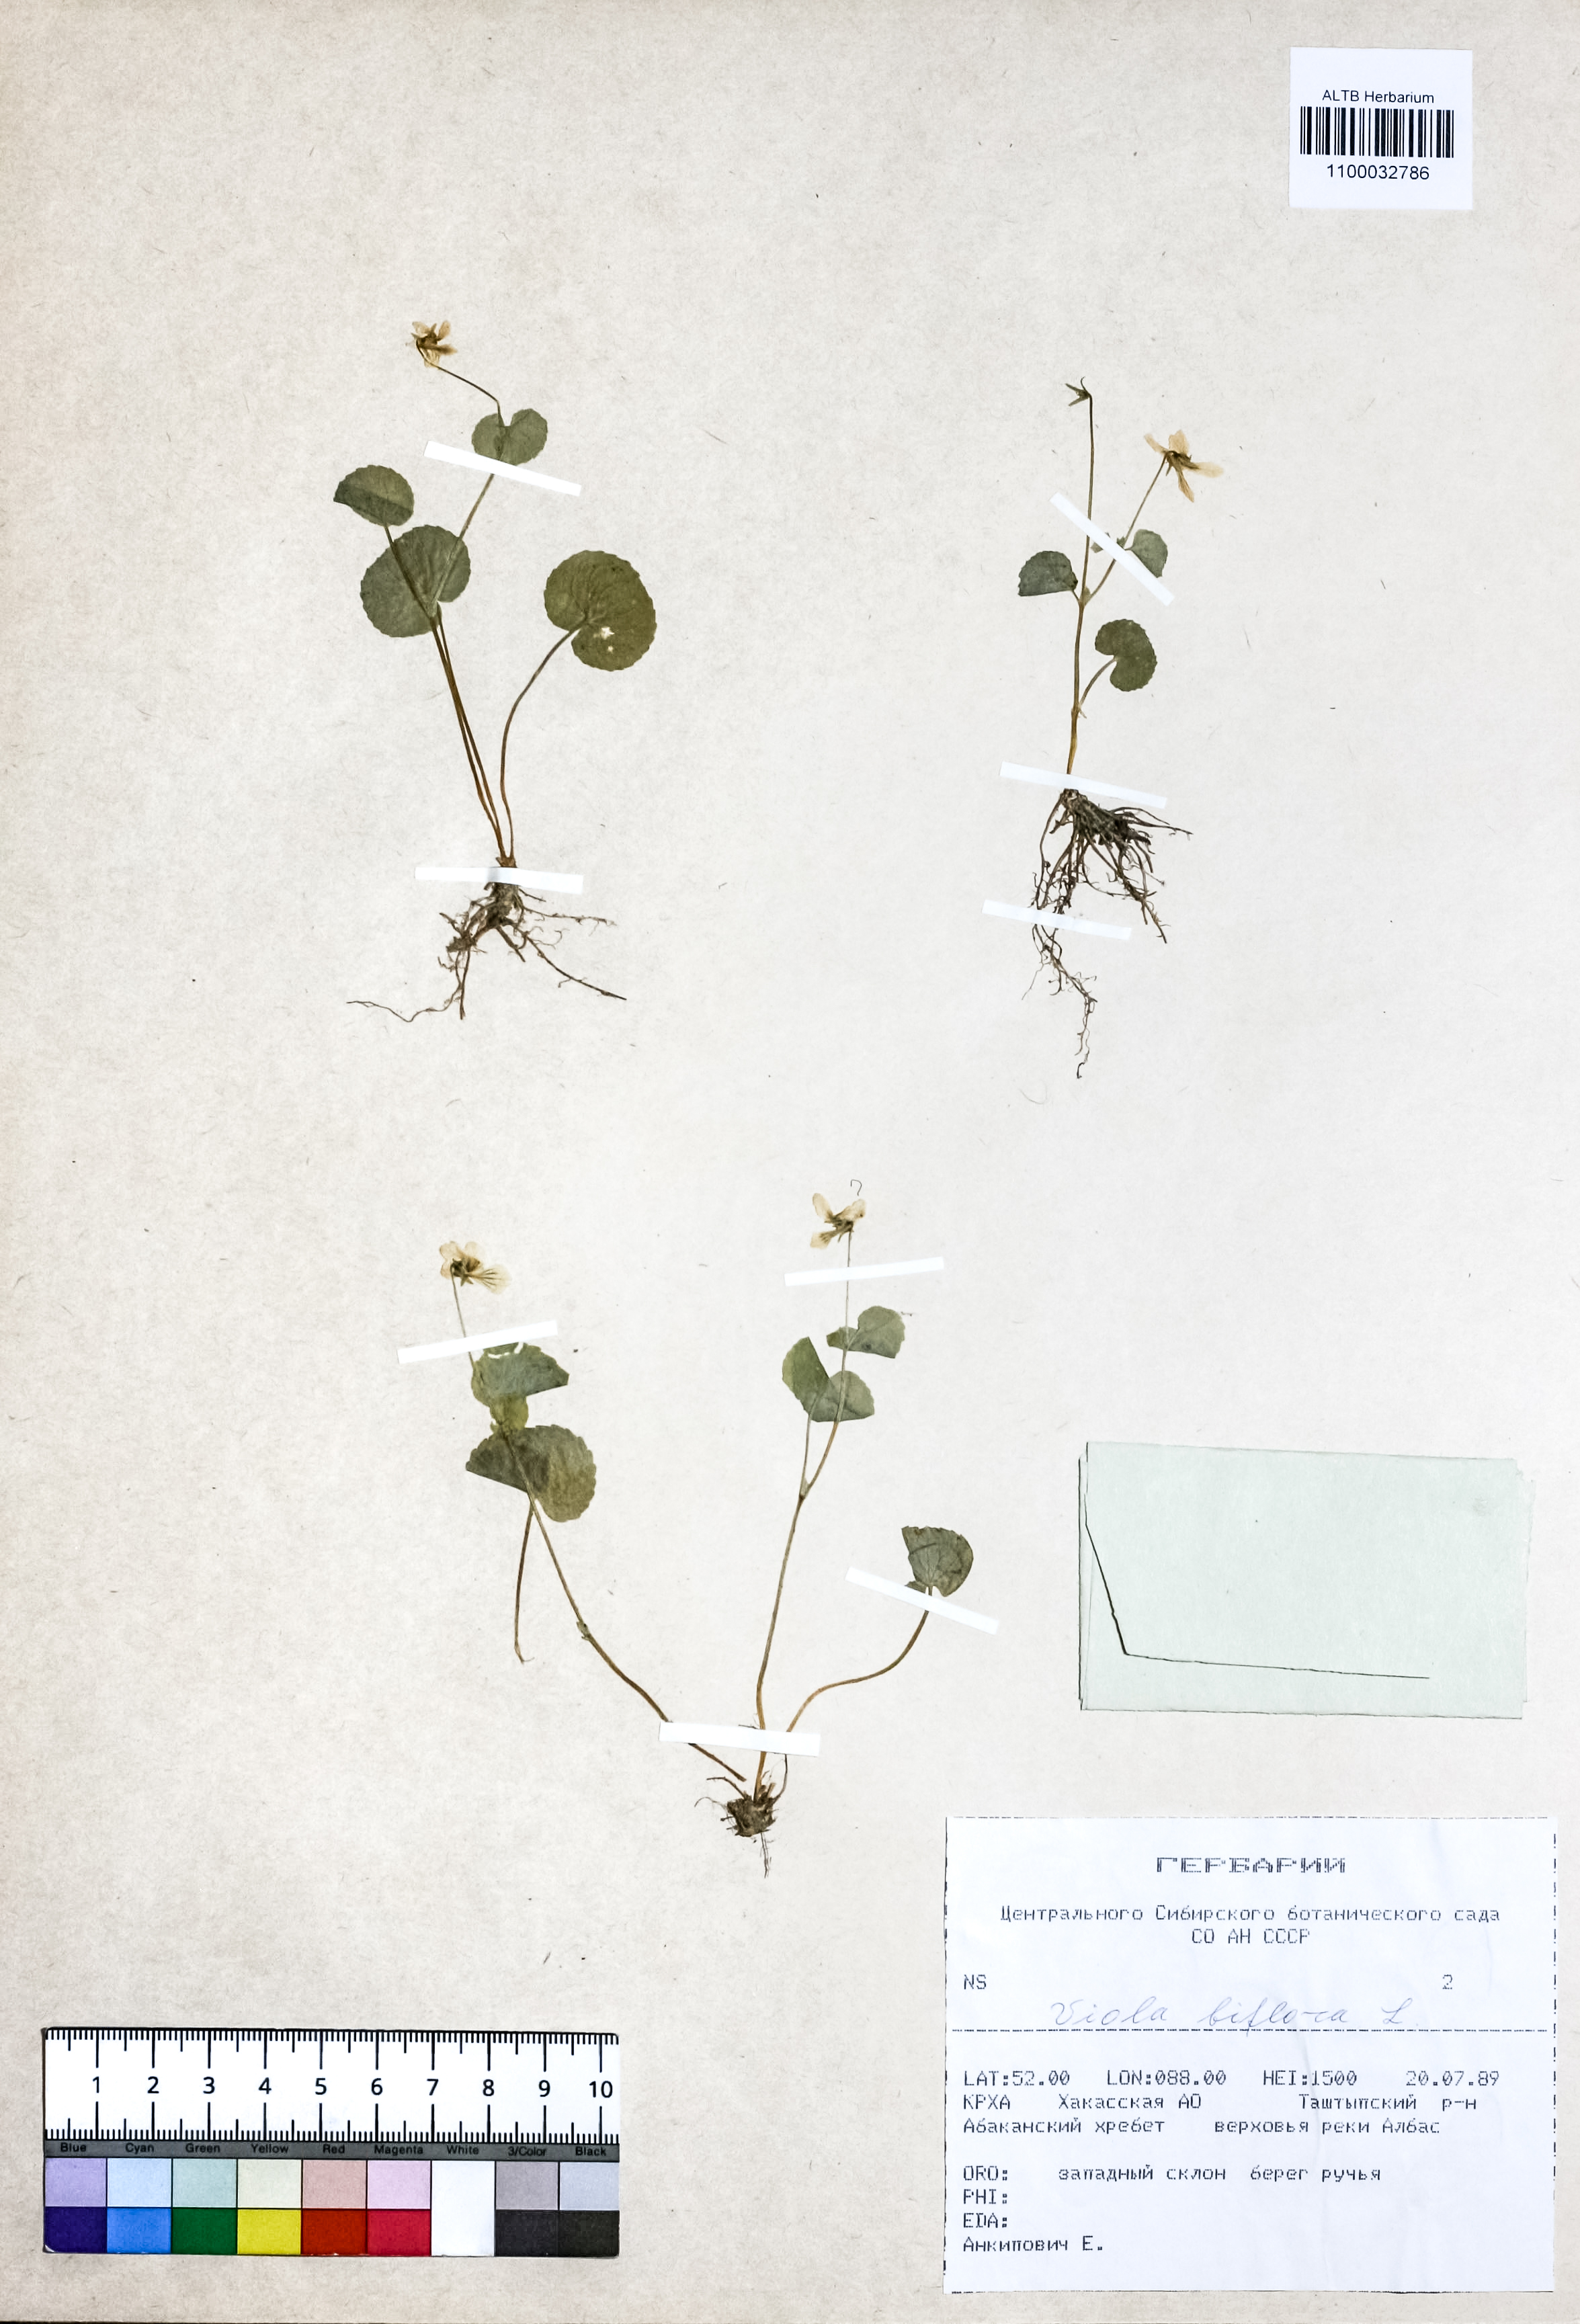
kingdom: Plantae
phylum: Tracheophyta
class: Magnoliopsida
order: Malpighiales
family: Violaceae
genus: Viola
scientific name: Viola biflora
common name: Alpine yellow violet
